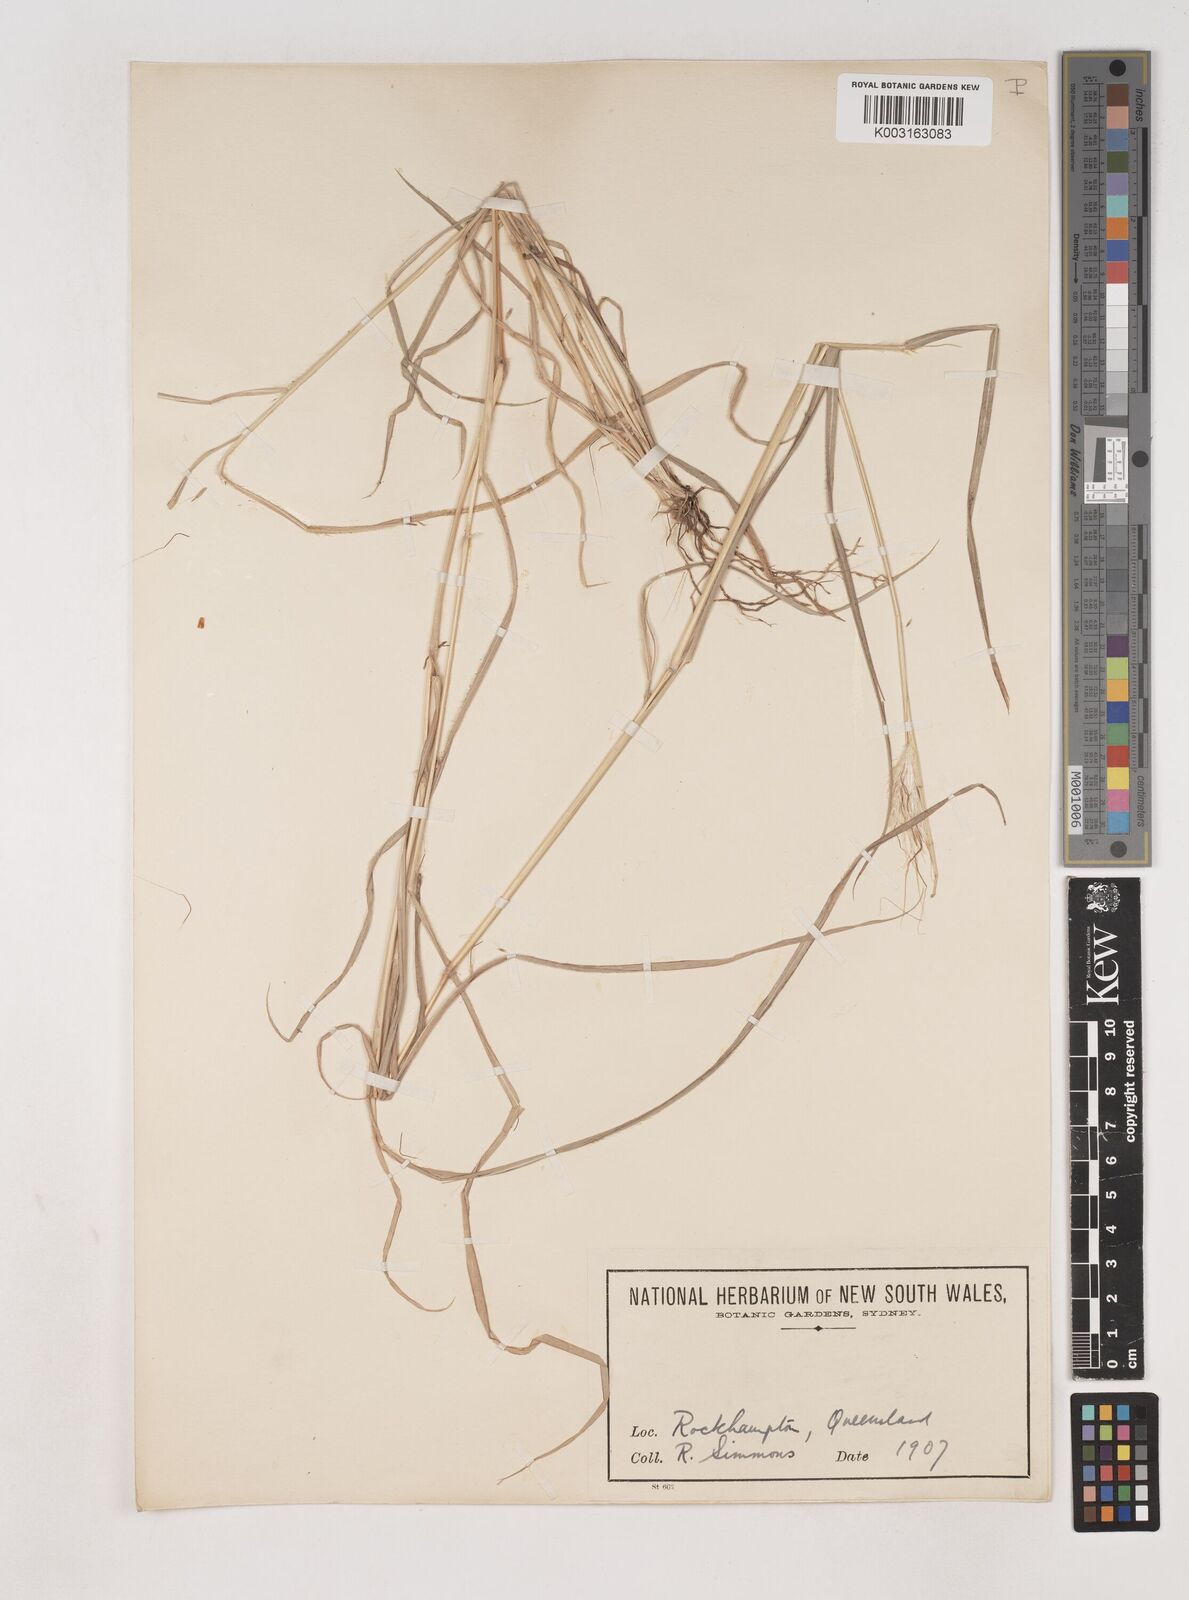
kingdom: Plantae
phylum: Tracheophyta
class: Liliopsida
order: Poales
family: Poaceae
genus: Dichanthium
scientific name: Dichanthium sericeum
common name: Silky bluestem
